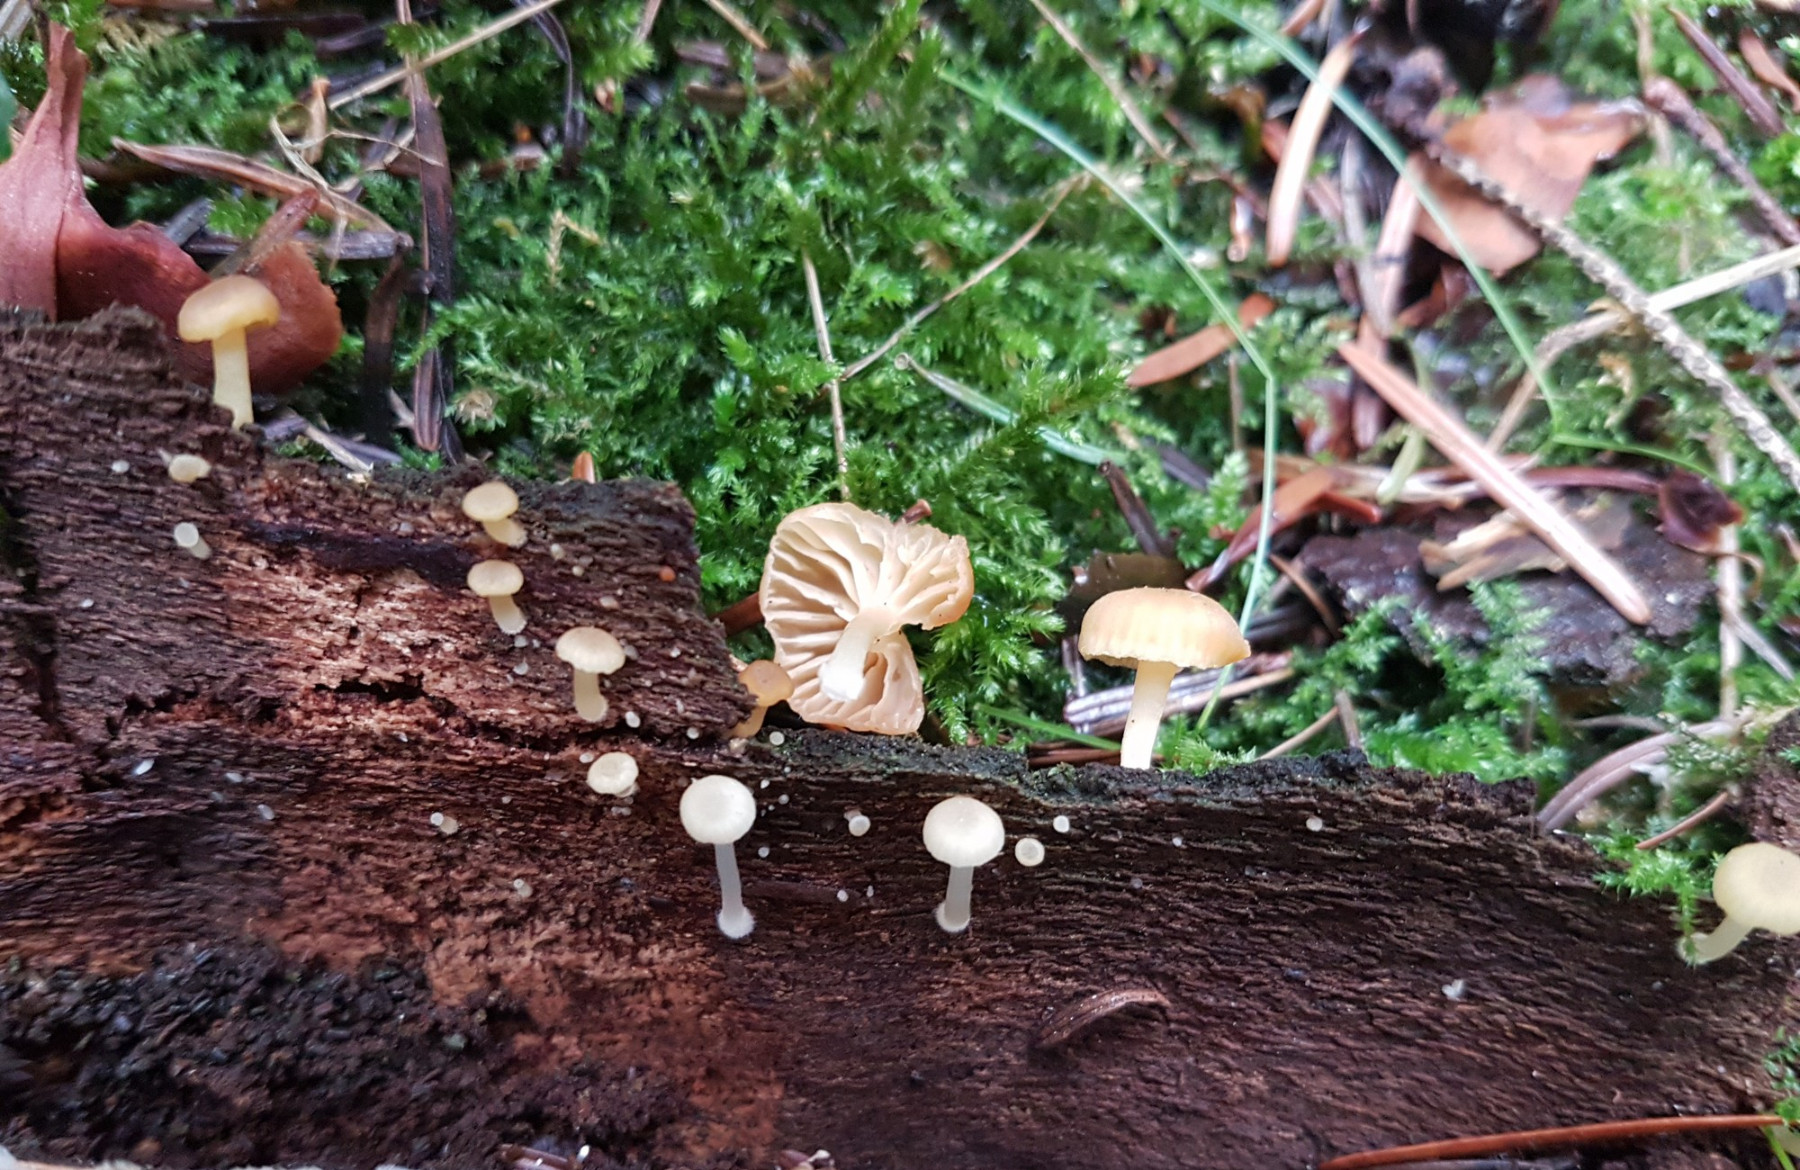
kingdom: Fungi
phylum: Basidiomycota
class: Agaricomycetes
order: Agaricales
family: Hygrophoraceae
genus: Chrysomphalina
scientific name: Chrysomphalina grossula
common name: stød-gyldenblad
